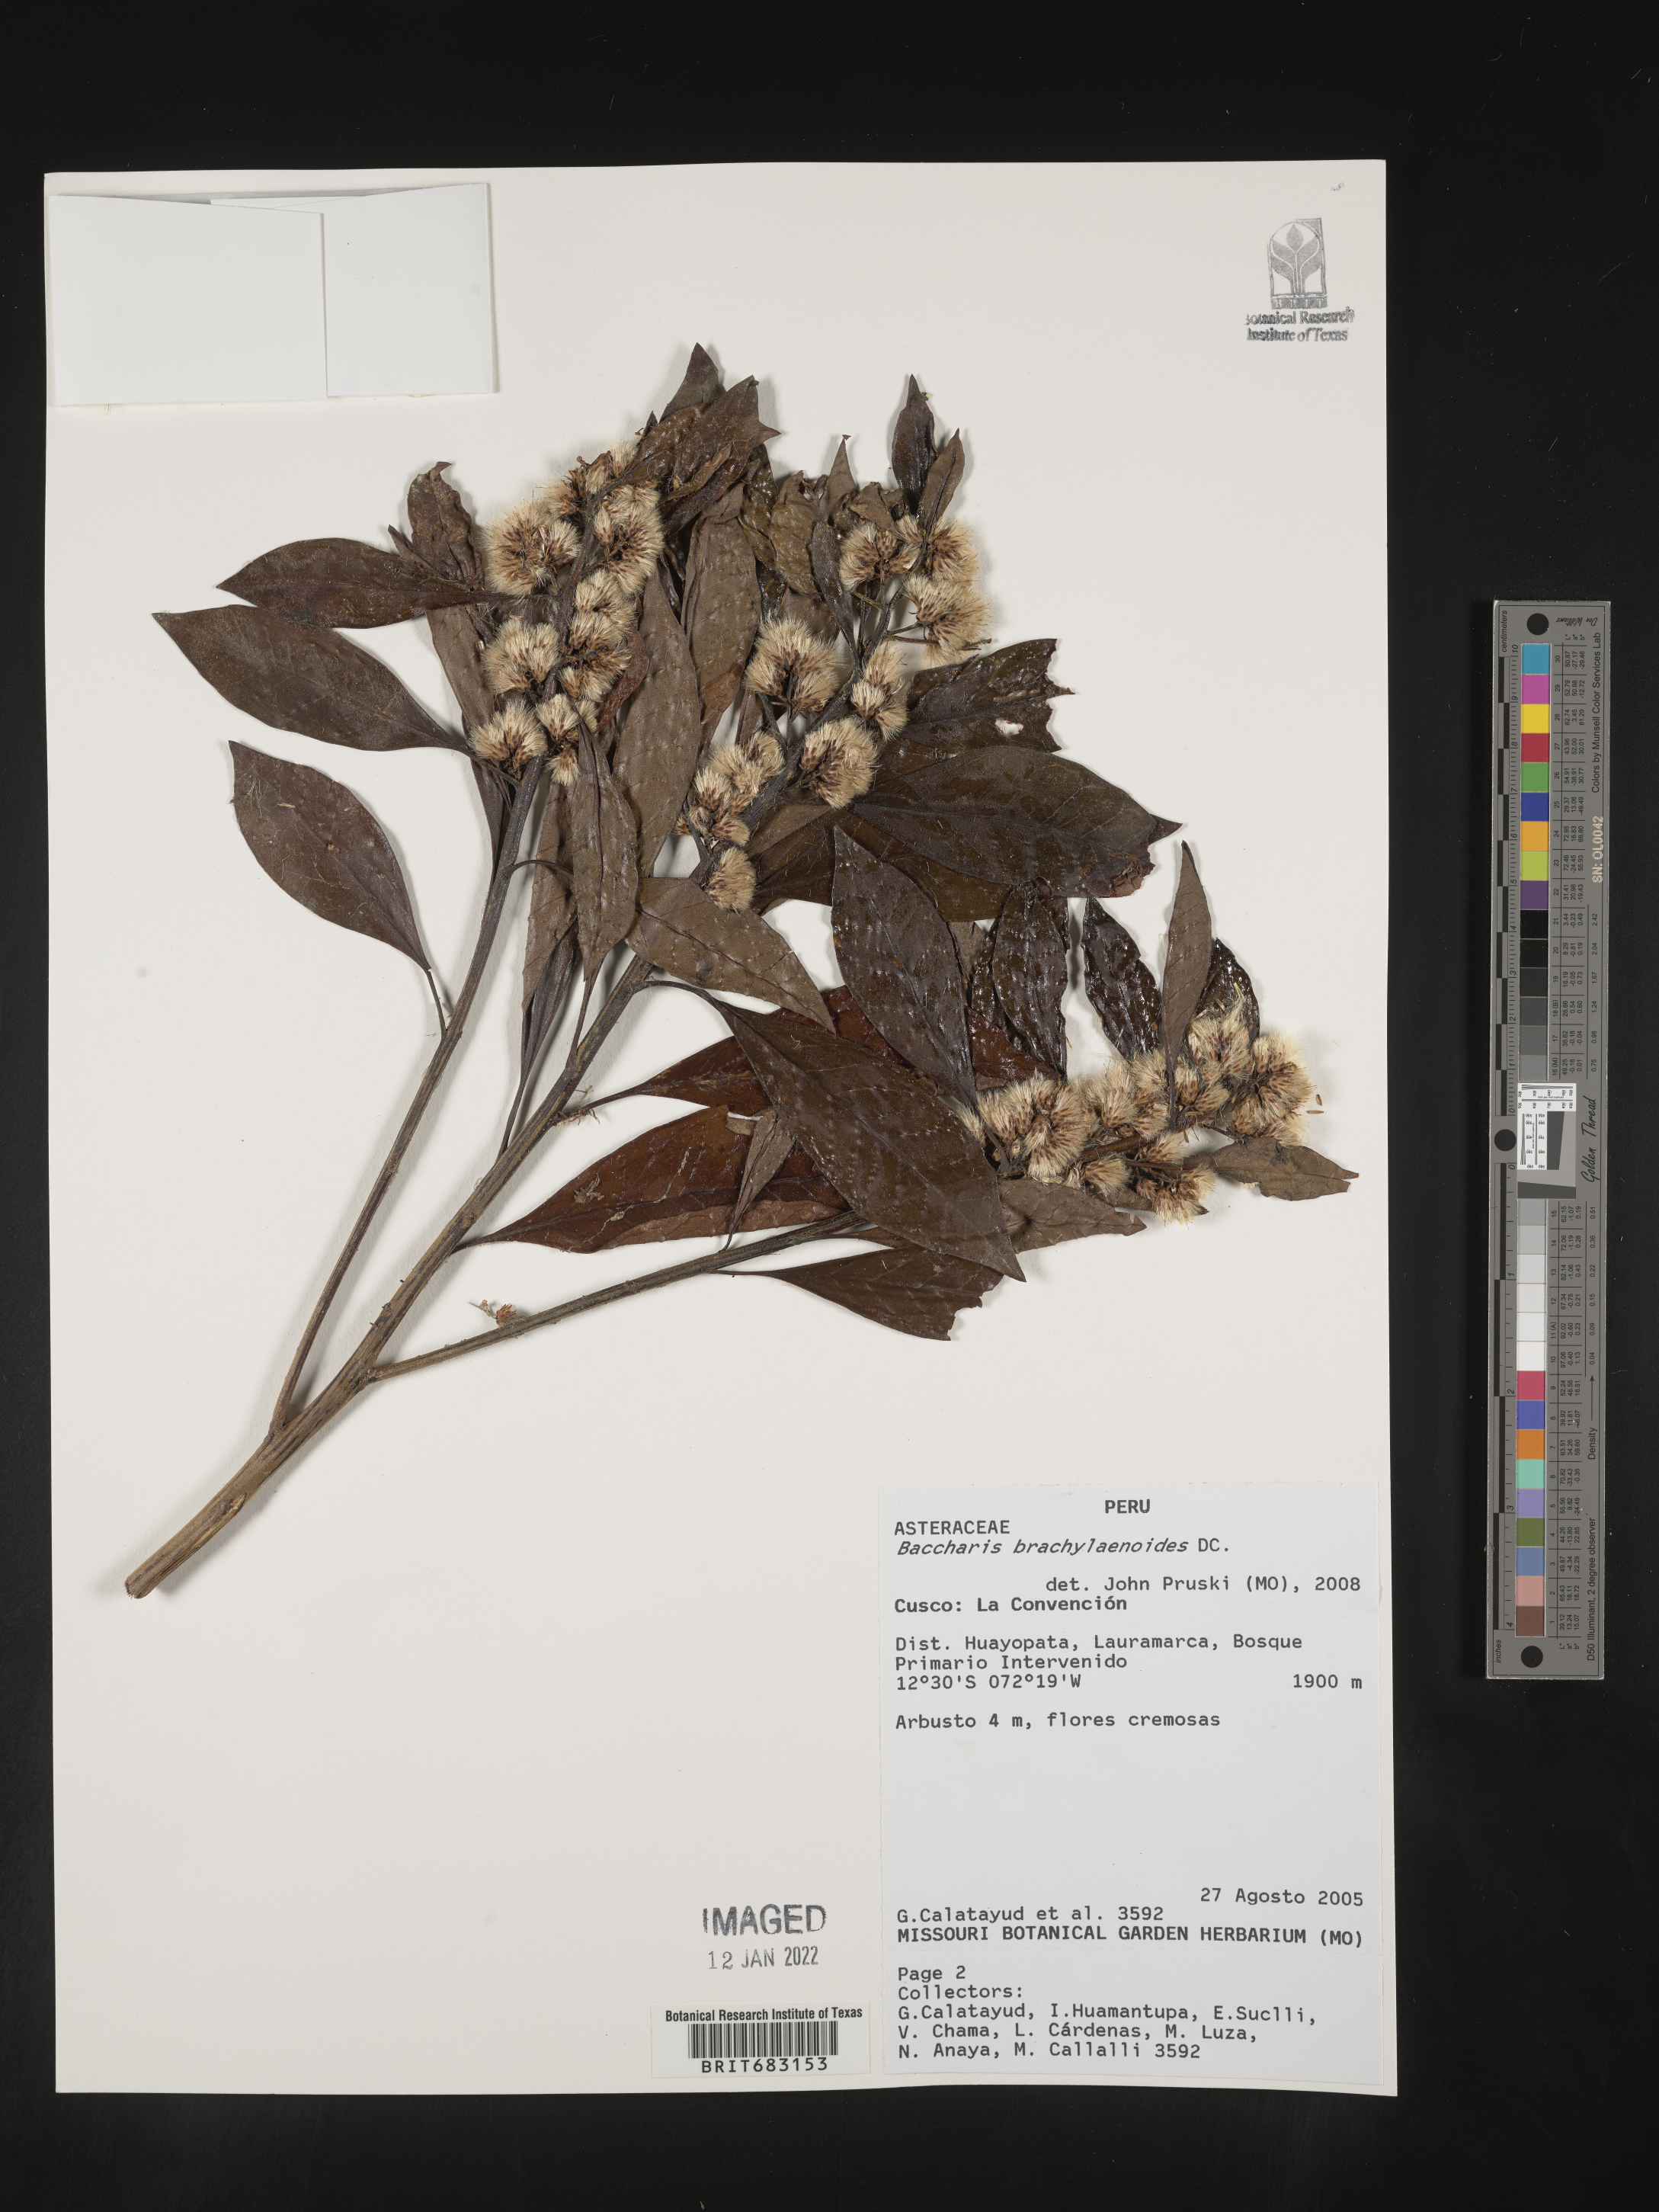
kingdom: Plantae
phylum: Tracheophyta
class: Magnoliopsida
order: Asterales
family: Asteraceae
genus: Baccharis
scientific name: Baccharis
